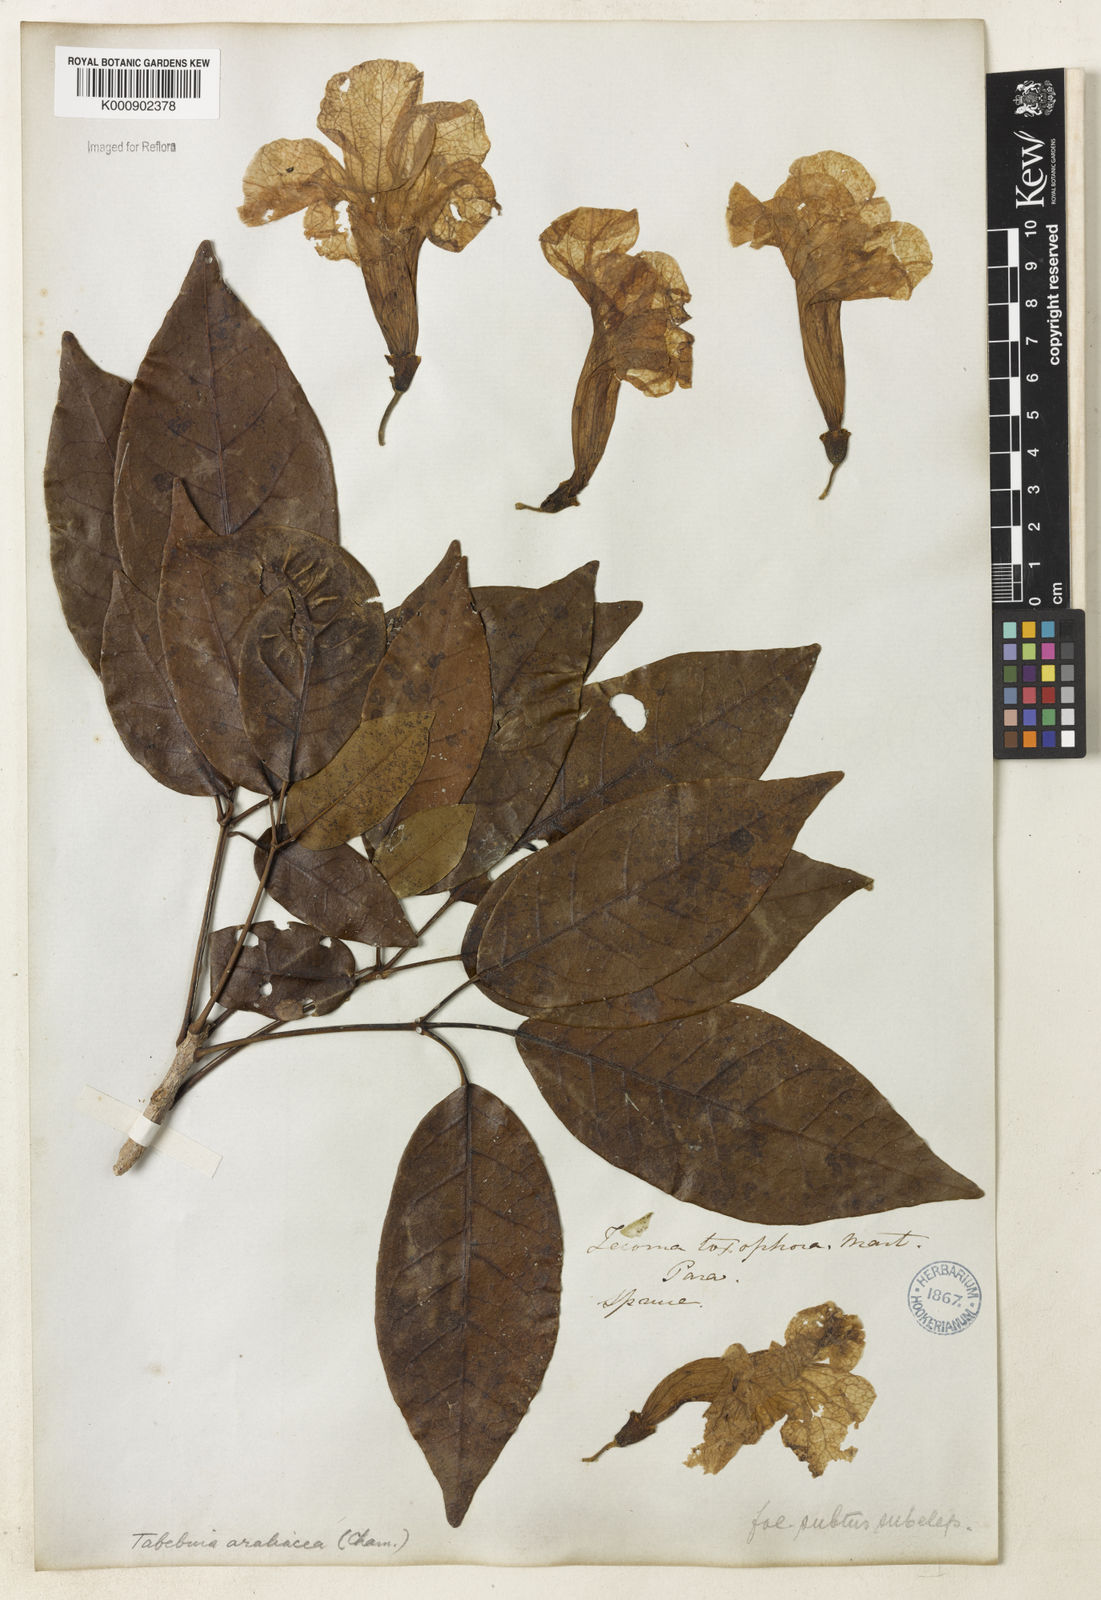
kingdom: Plantae
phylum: Tracheophyta
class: Magnoliopsida
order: Lamiales
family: Bignoniaceae
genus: Handroanthus
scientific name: Handroanthus serratifolius
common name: Yellow ipe
